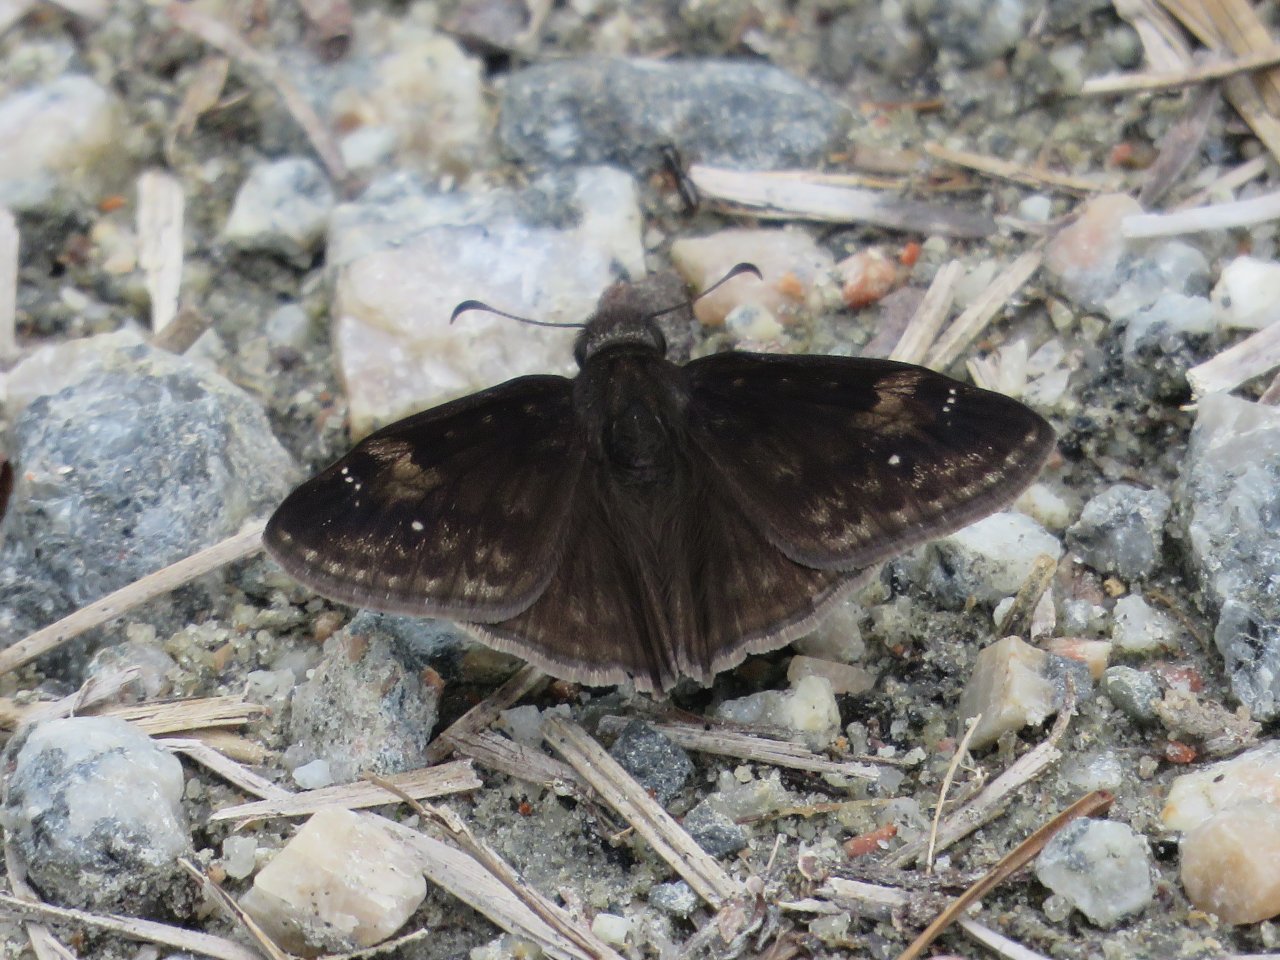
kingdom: Animalia
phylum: Arthropoda
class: Insecta
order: Lepidoptera
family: Hesperiidae
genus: Erynnis
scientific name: Erynnis zarucco
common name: Zarucco Duskywing
